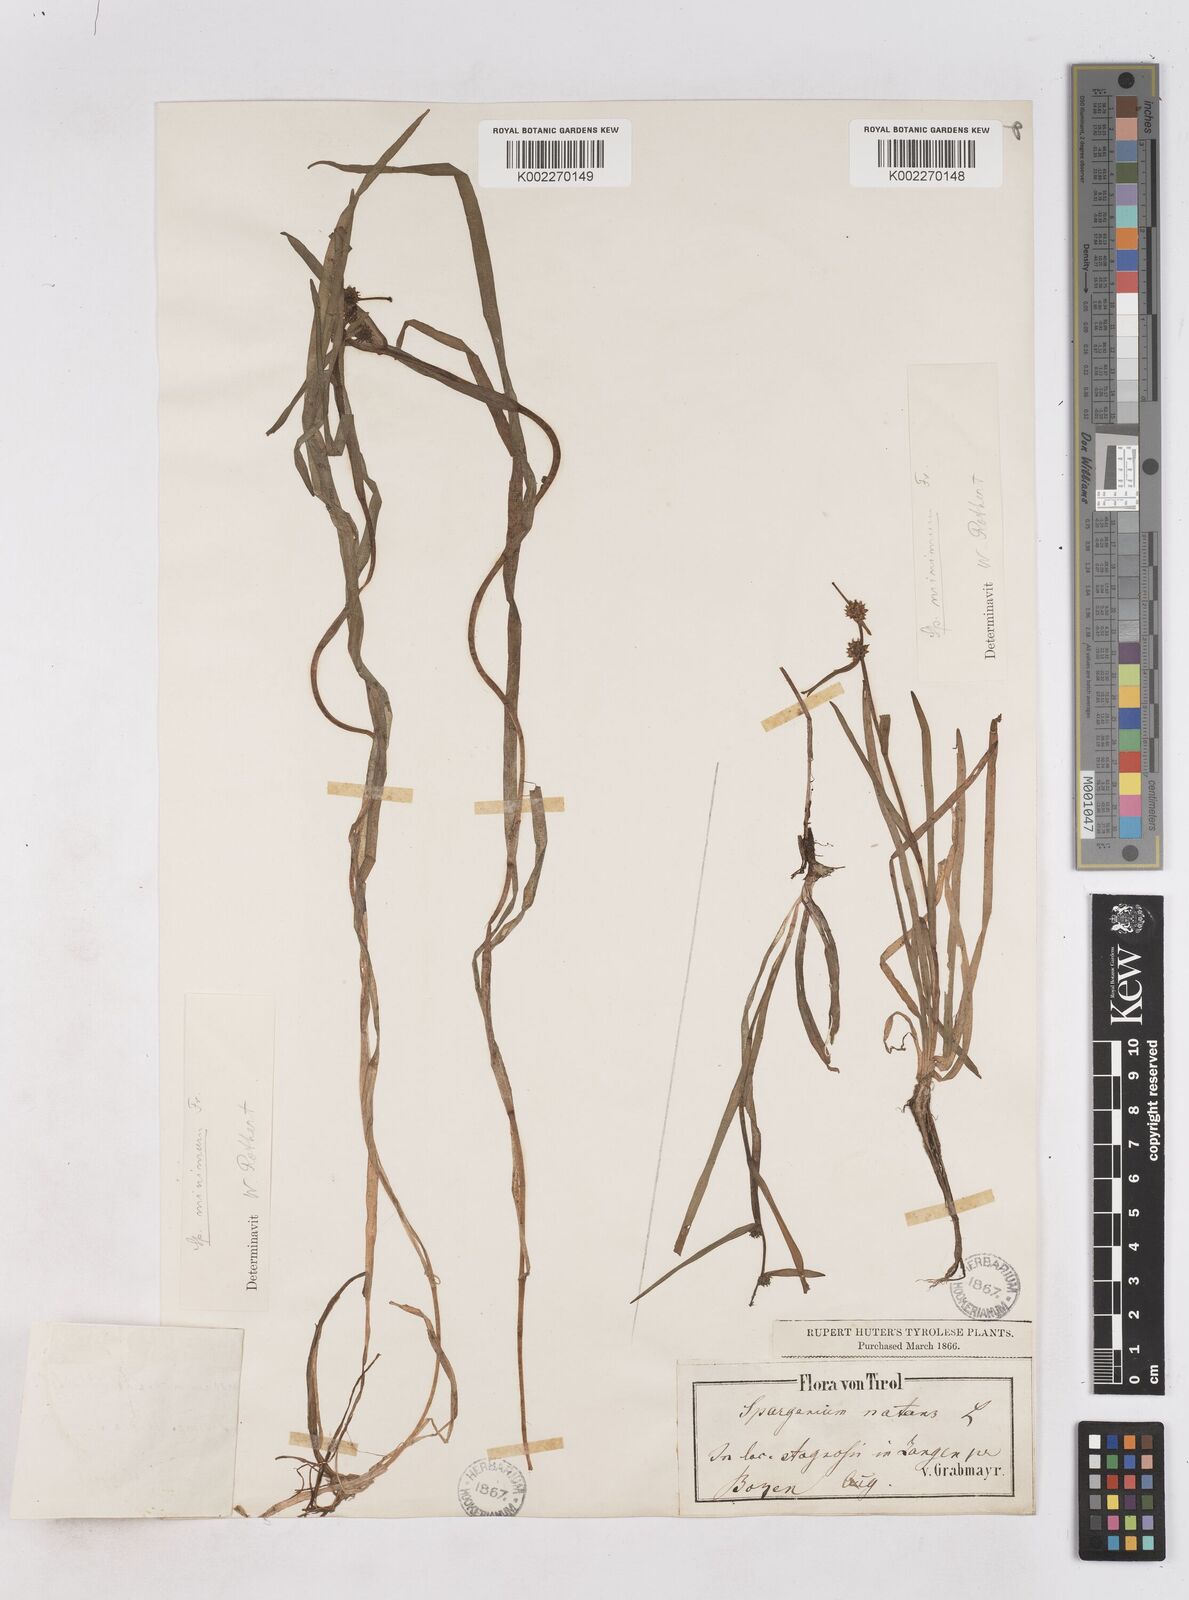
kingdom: Plantae
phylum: Tracheophyta
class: Liliopsida
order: Poales
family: Typhaceae
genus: Sparganium
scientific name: Sparganium natans
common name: Least bur-reed
